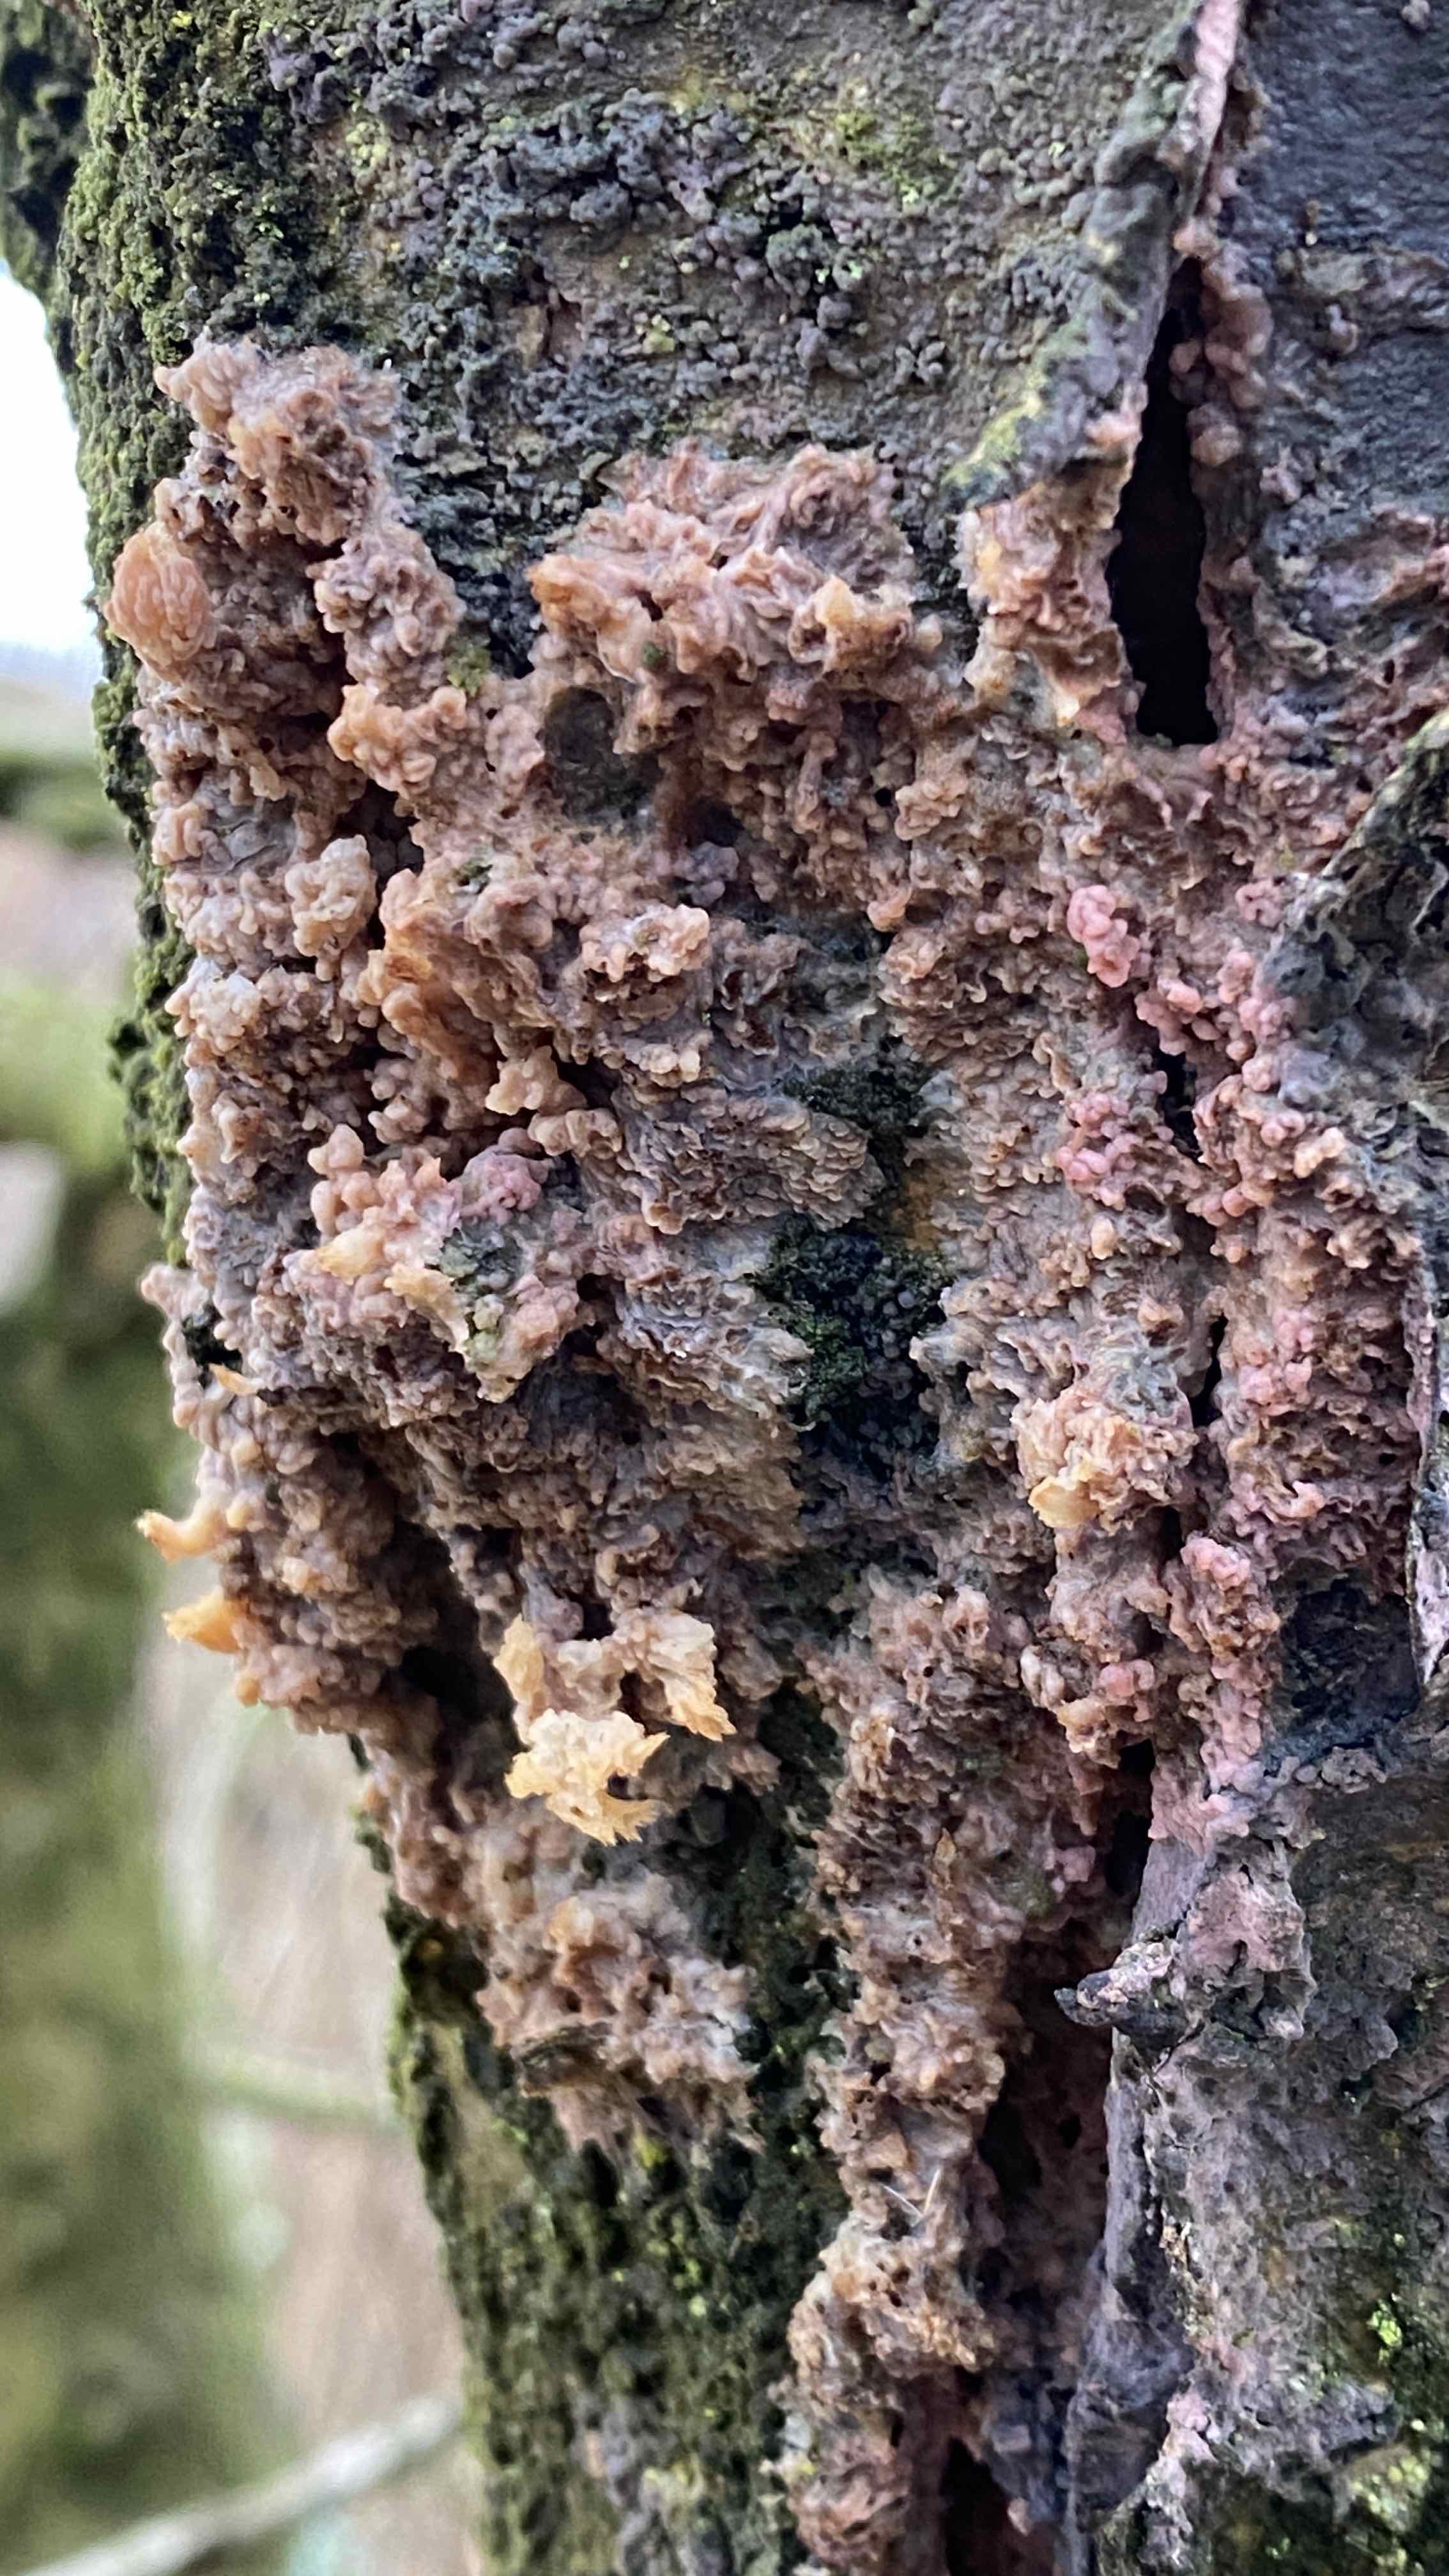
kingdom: Fungi
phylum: Basidiomycota
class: Agaricomycetes
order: Polyporales
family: Meruliaceae
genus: Phlebia
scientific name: Phlebia radiata
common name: stråle-åresvamp
